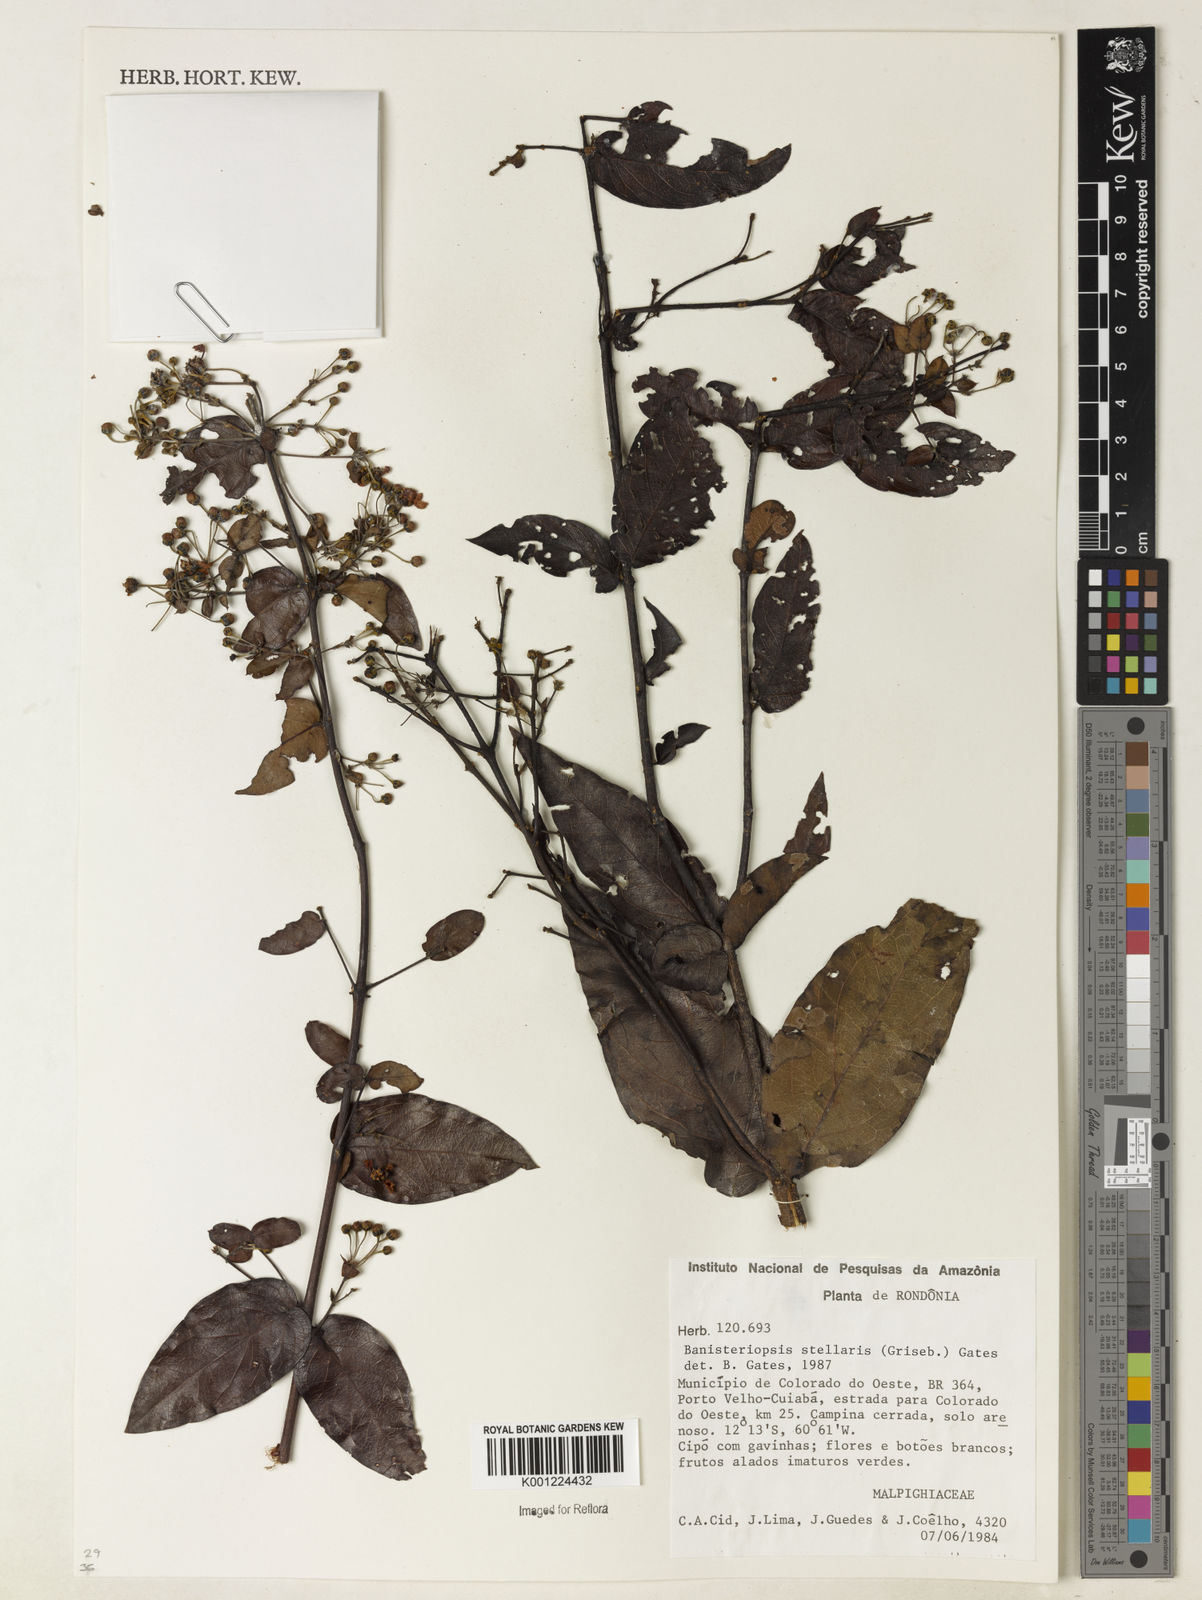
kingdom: Plantae
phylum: Tracheophyta
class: Magnoliopsida
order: Malpighiales
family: Malpighiaceae
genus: Banisteriopsis
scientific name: Banisteriopsis stellaris
